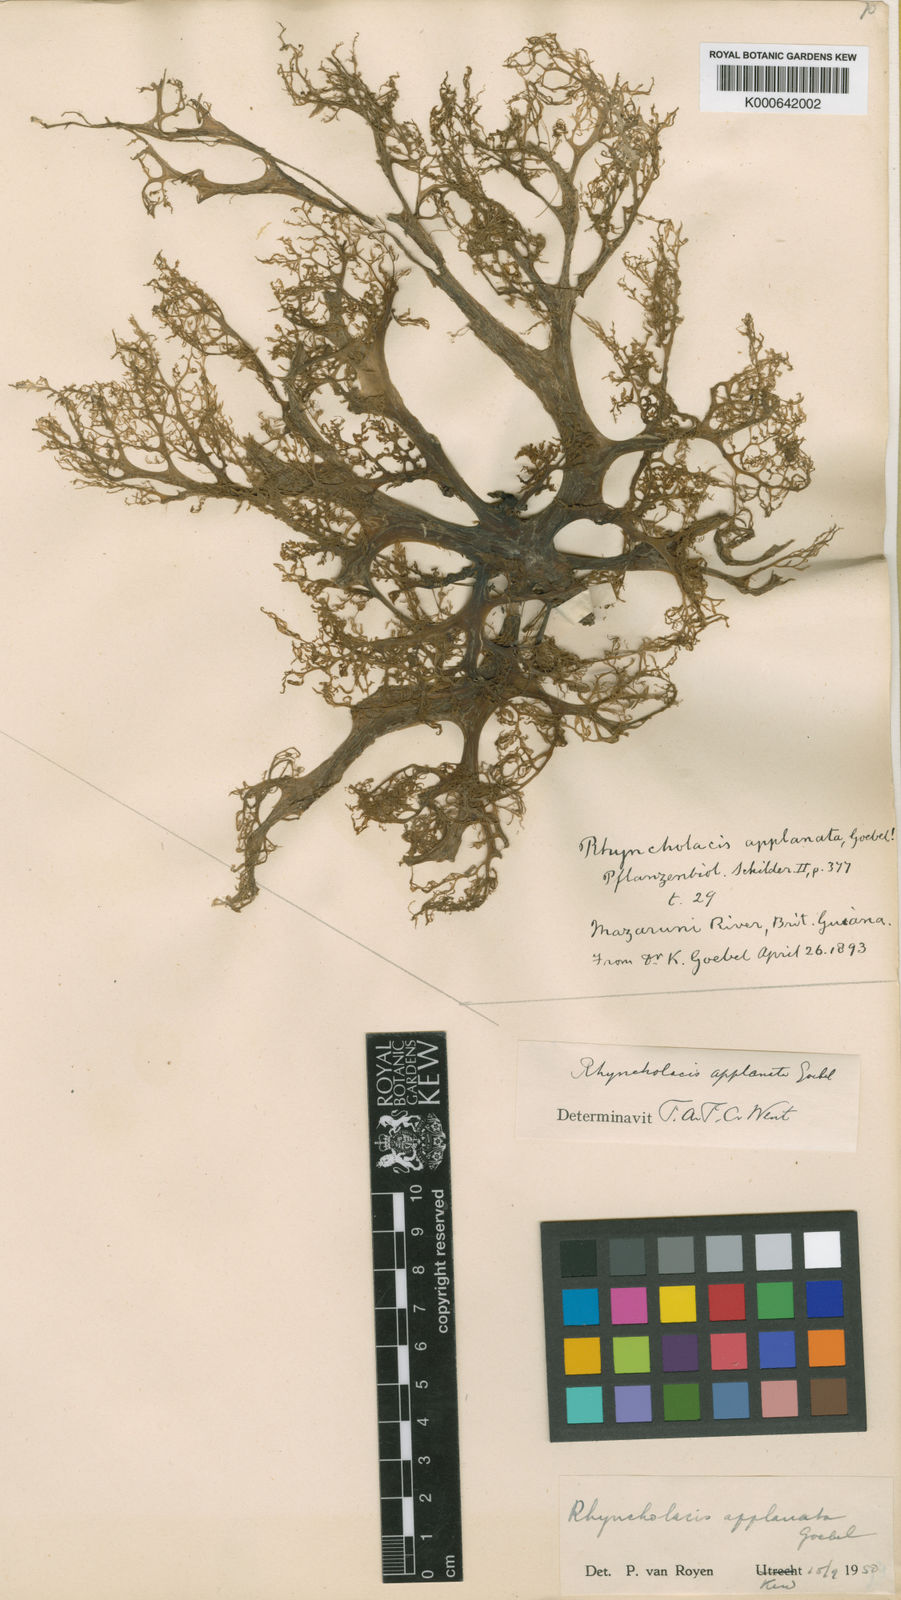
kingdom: Plantae
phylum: Tracheophyta
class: Magnoliopsida
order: Malpighiales
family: Podostemaceae
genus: Rhyncholacis
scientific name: Rhyncholacis applanata
